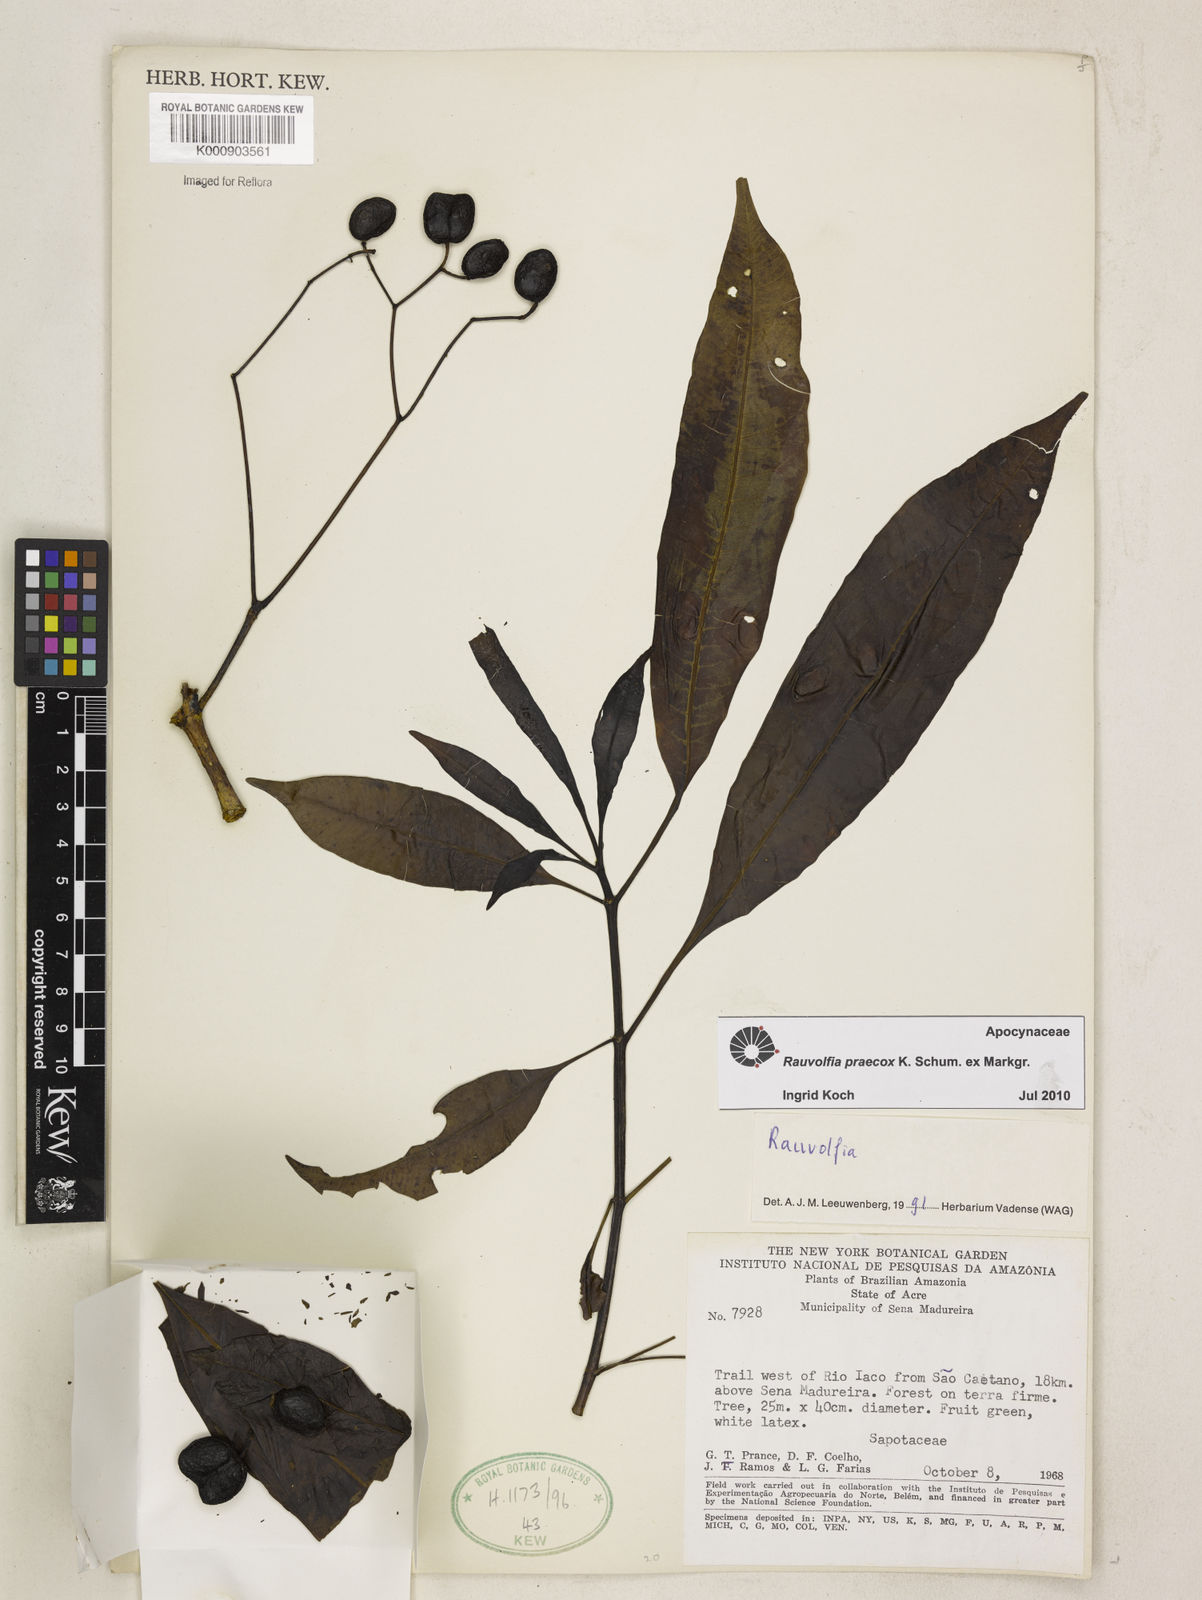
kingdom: Plantae
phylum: Tracheophyta
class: Magnoliopsida
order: Gentianales
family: Apocynaceae
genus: Rauvolfia
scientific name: Rauvolfia
